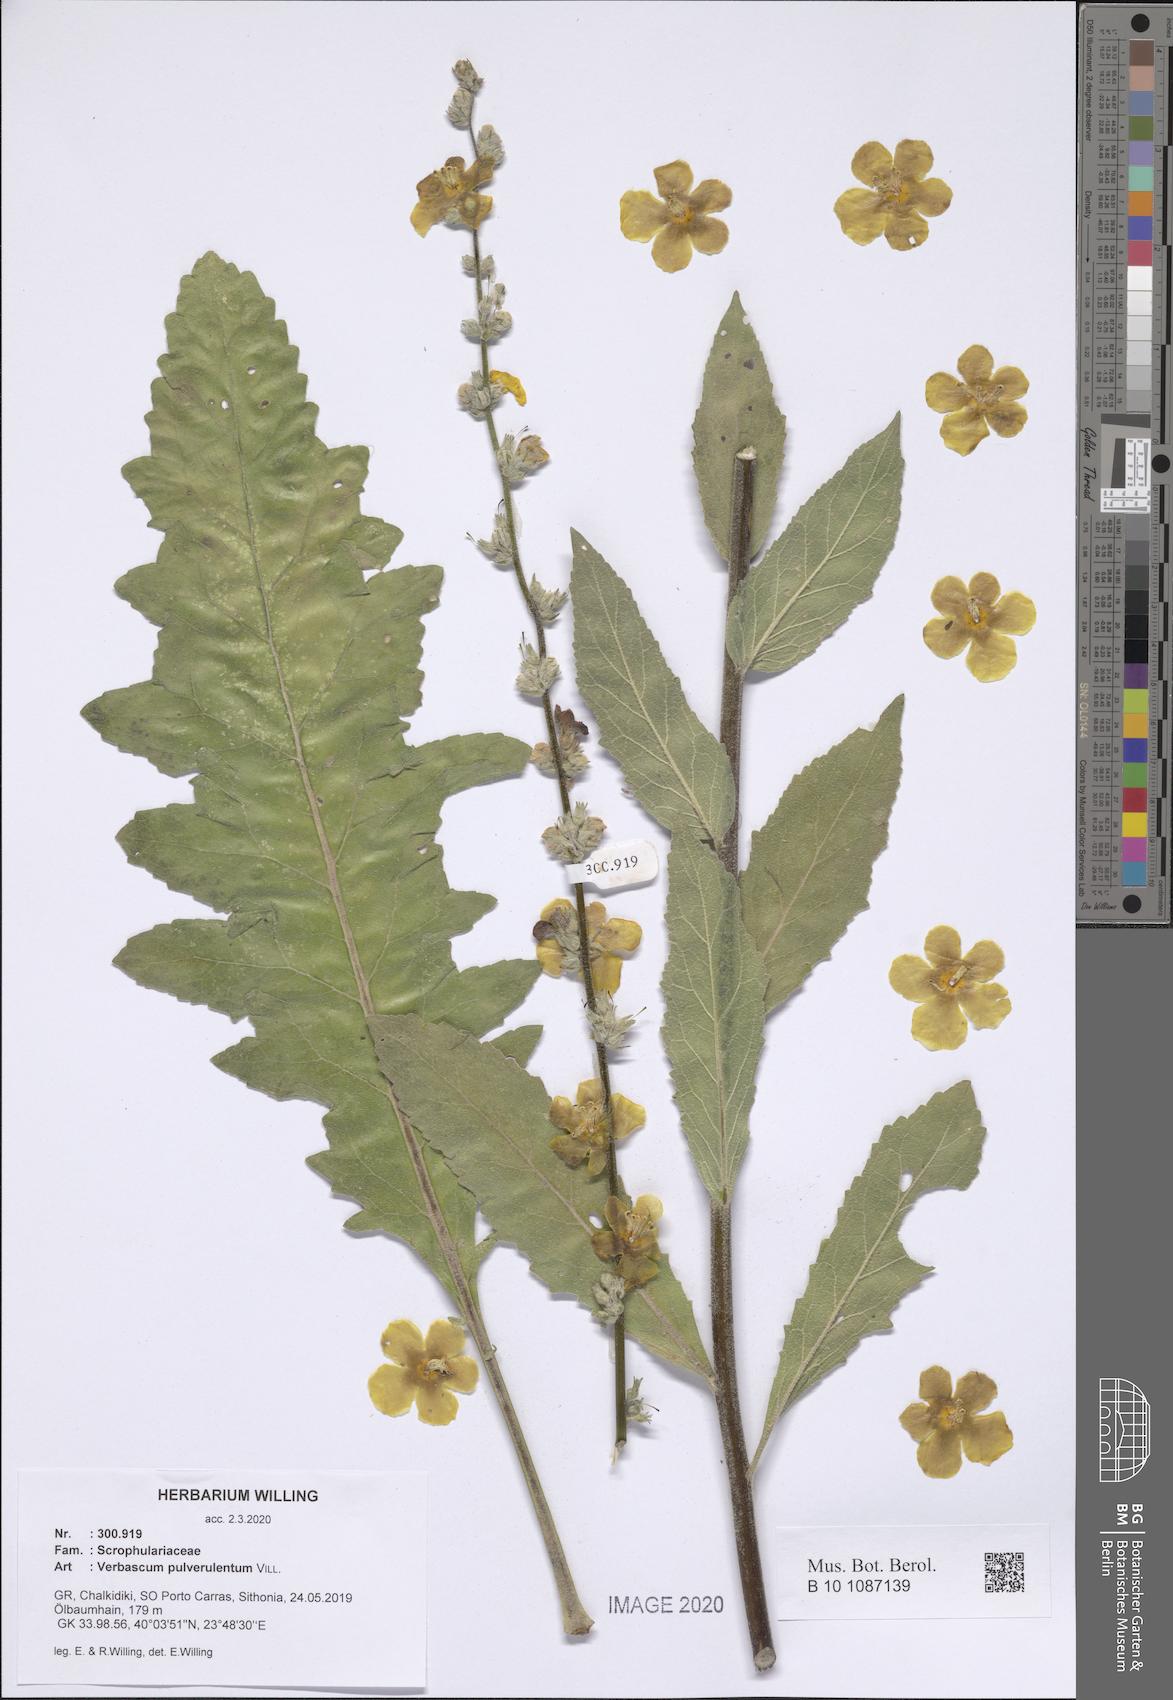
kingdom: Plantae
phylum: Tracheophyta
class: Magnoliopsida
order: Lamiales
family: Scrophulariaceae
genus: Verbascum
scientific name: Verbascum pulverulentum
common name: Broad-leaf mullein
